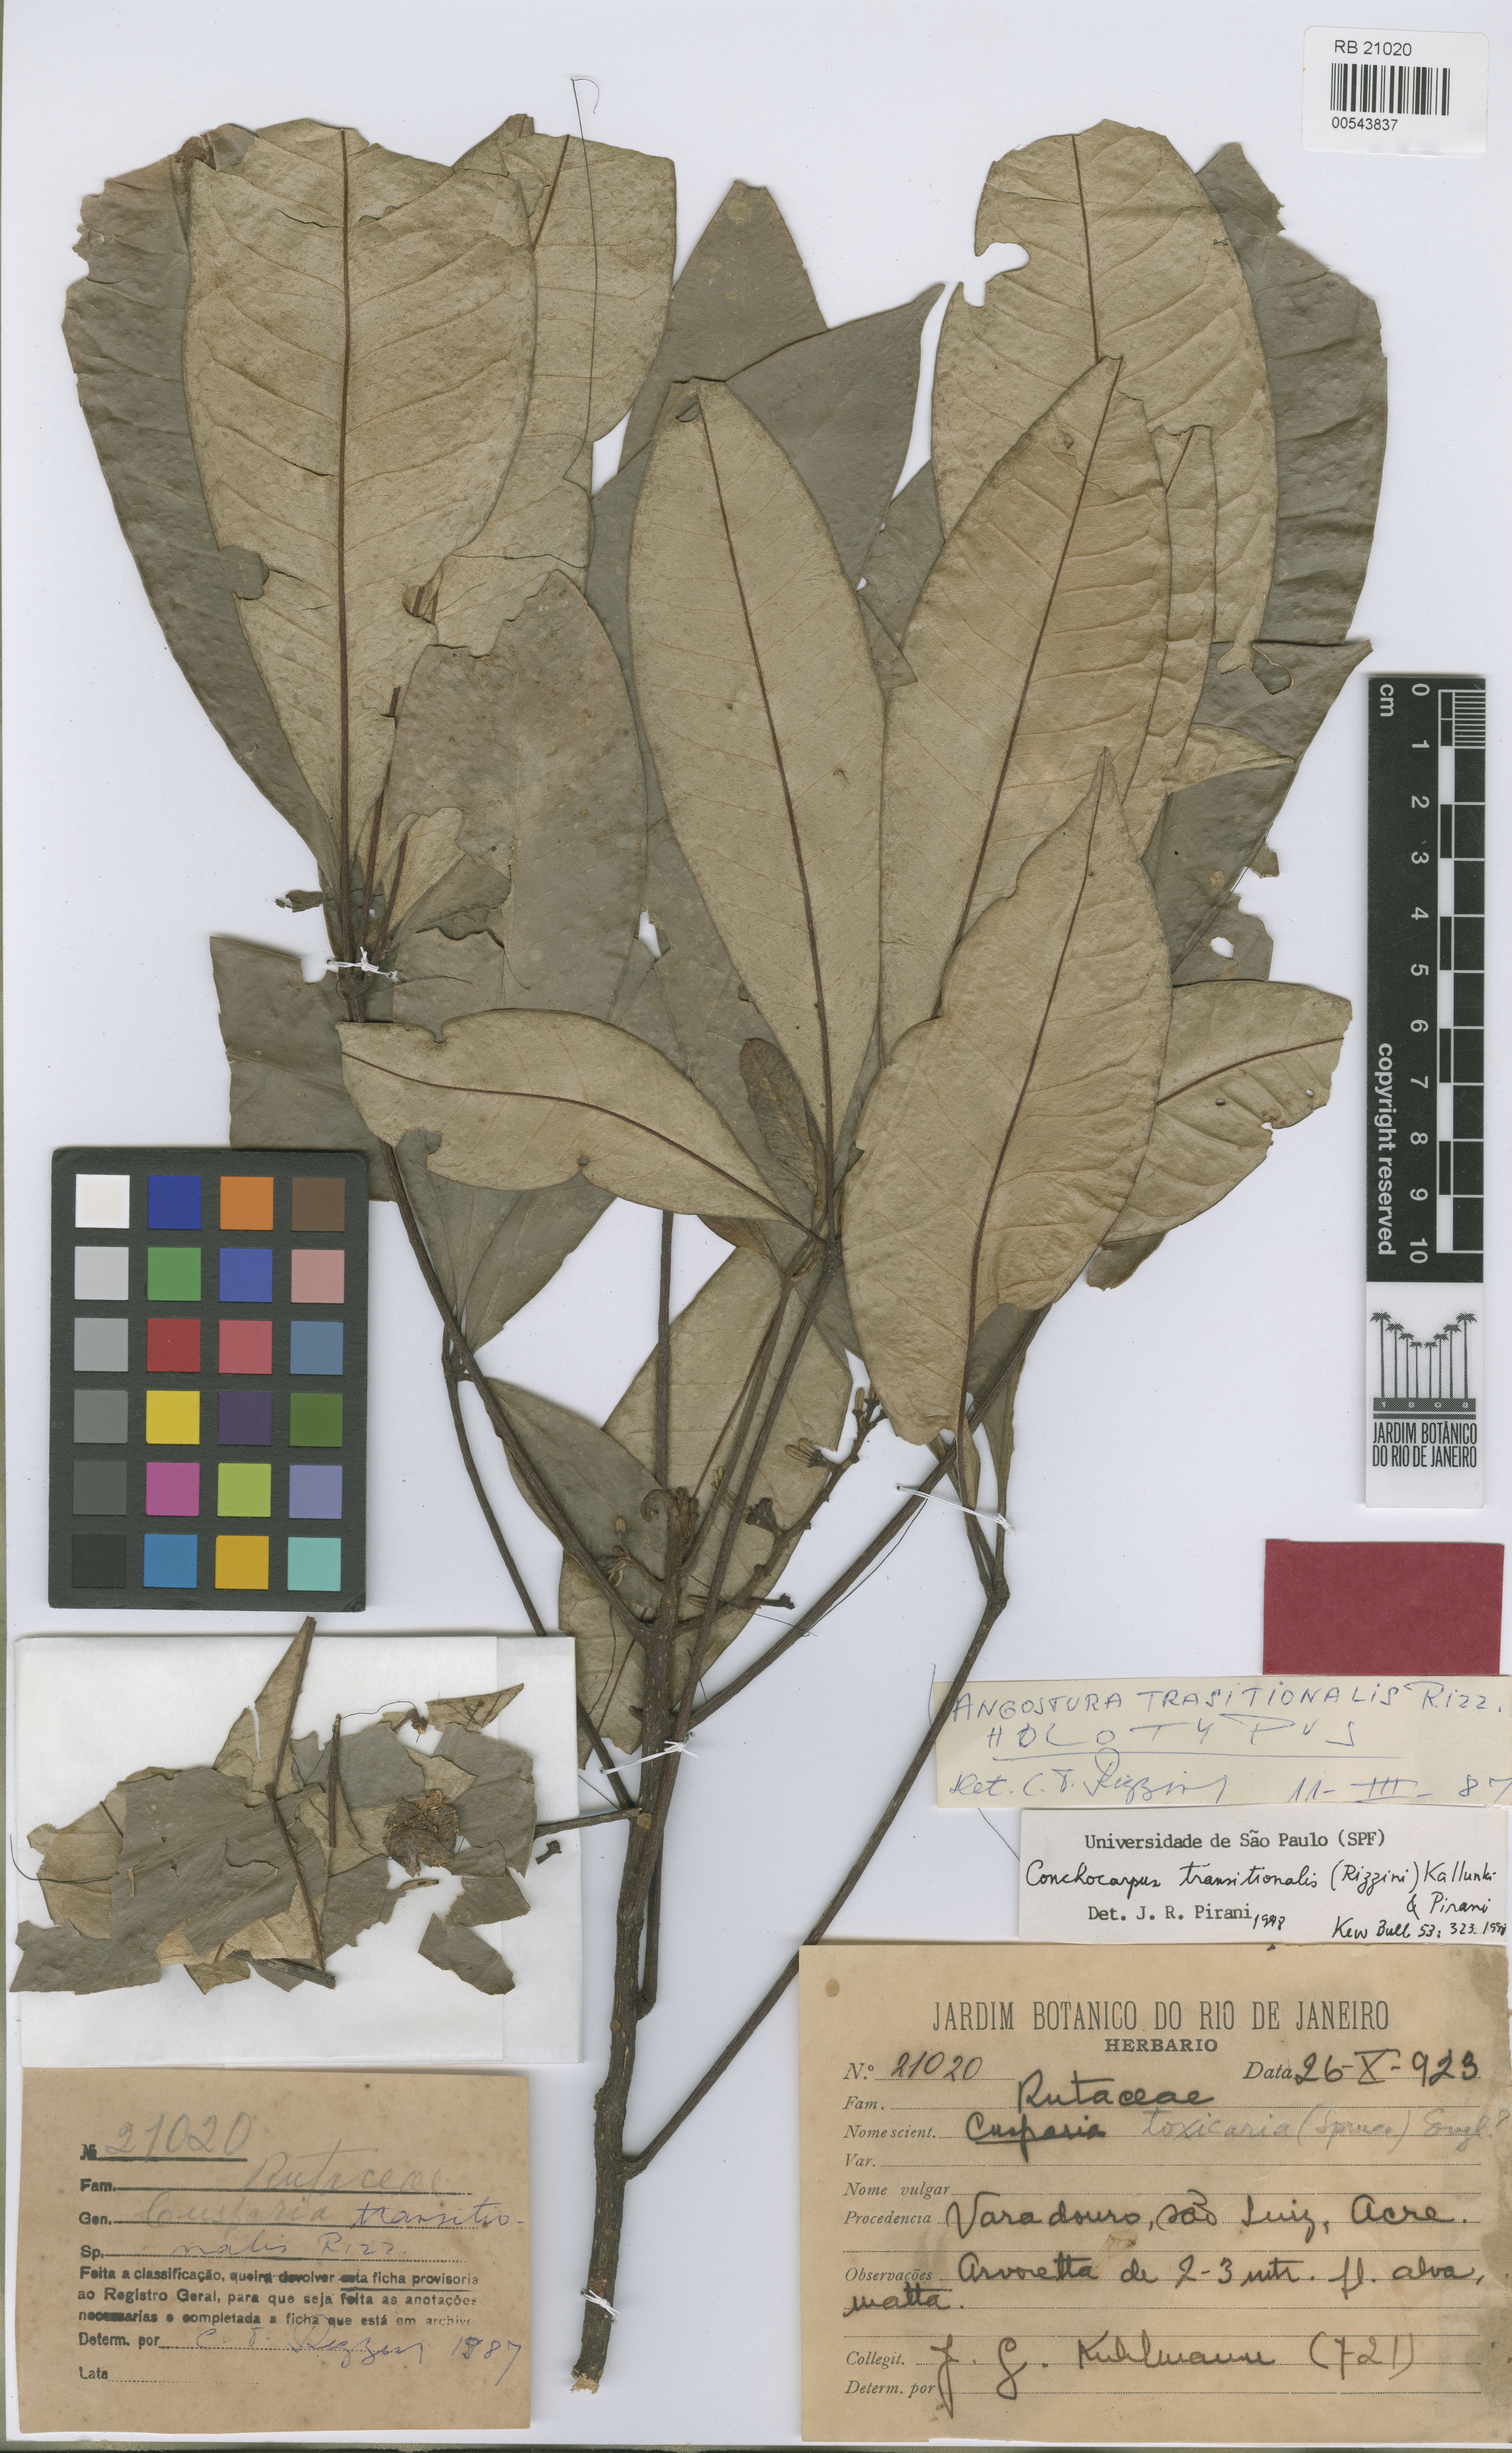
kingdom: Plantae
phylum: Tracheophyta
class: Magnoliopsida
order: Sapindales
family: Rutaceae
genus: Conchocarpus
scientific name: Conchocarpus transitionalis
